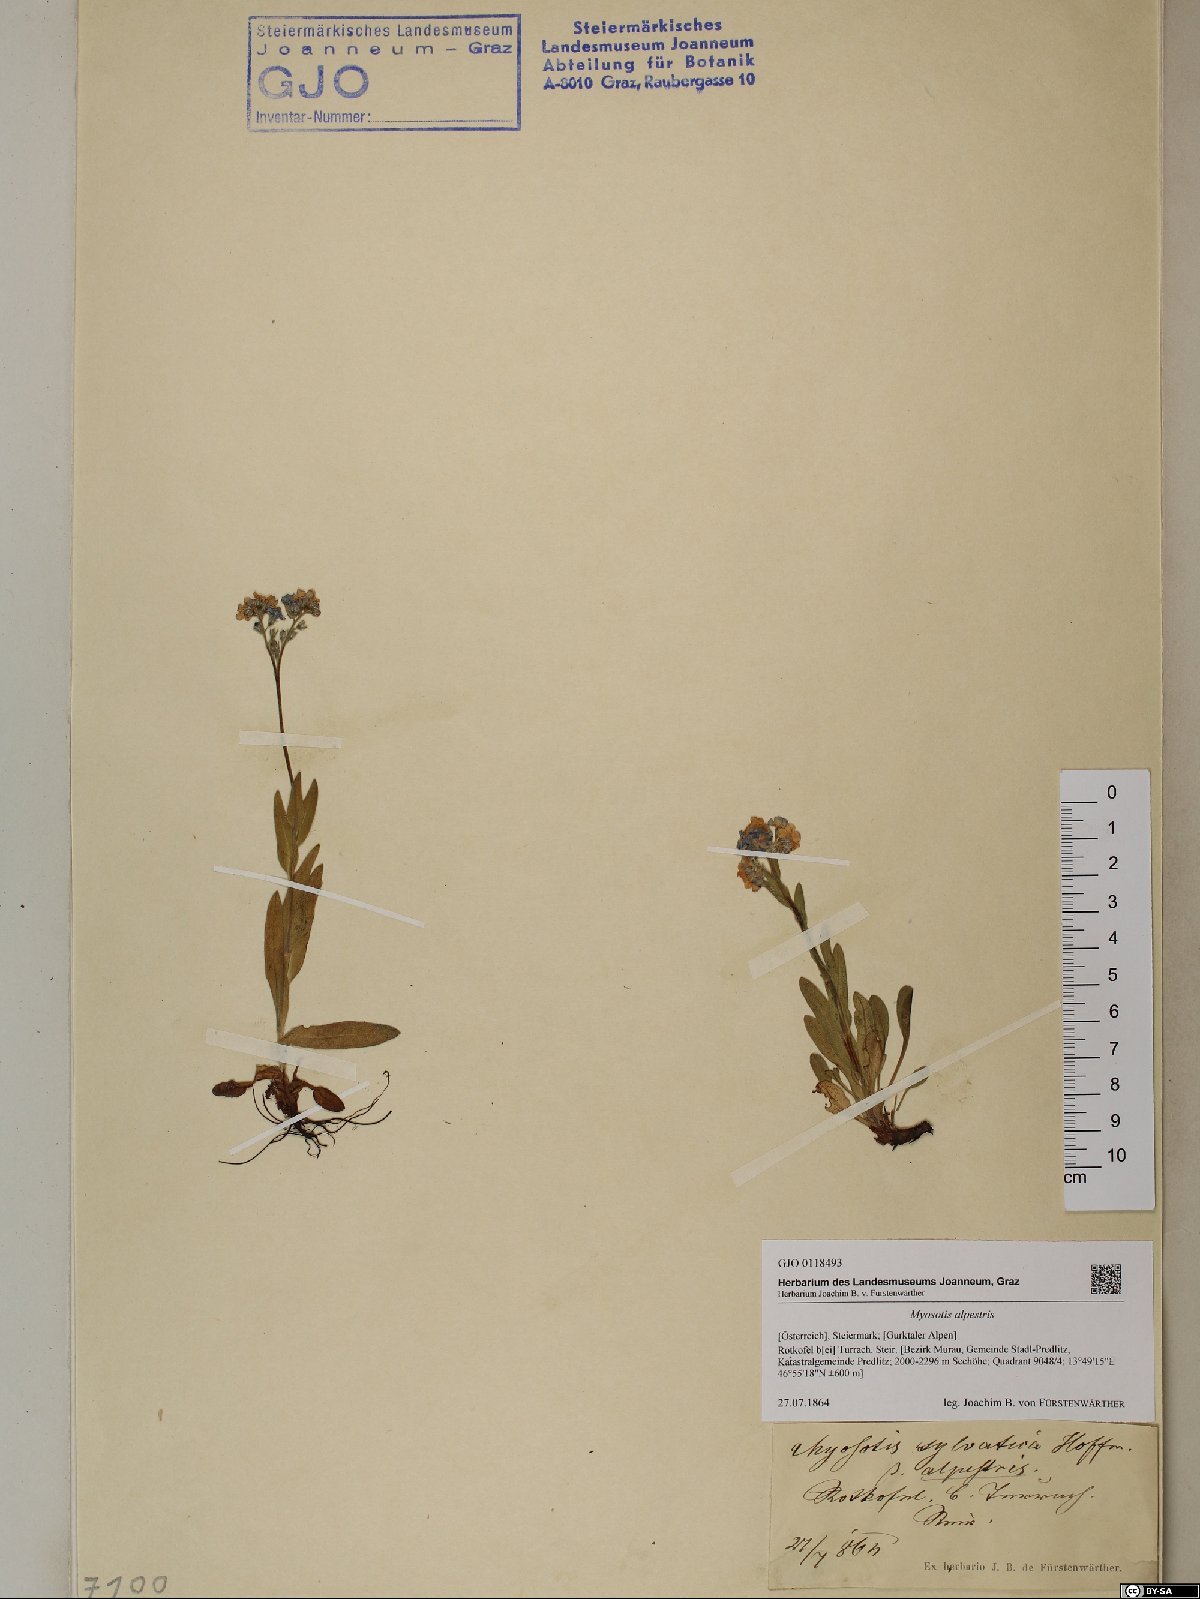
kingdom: Plantae
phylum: Tracheophyta
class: Magnoliopsida
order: Boraginales
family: Boraginaceae
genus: Myosotis
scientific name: Myosotis alpestris
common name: Alpine forget-me-not
